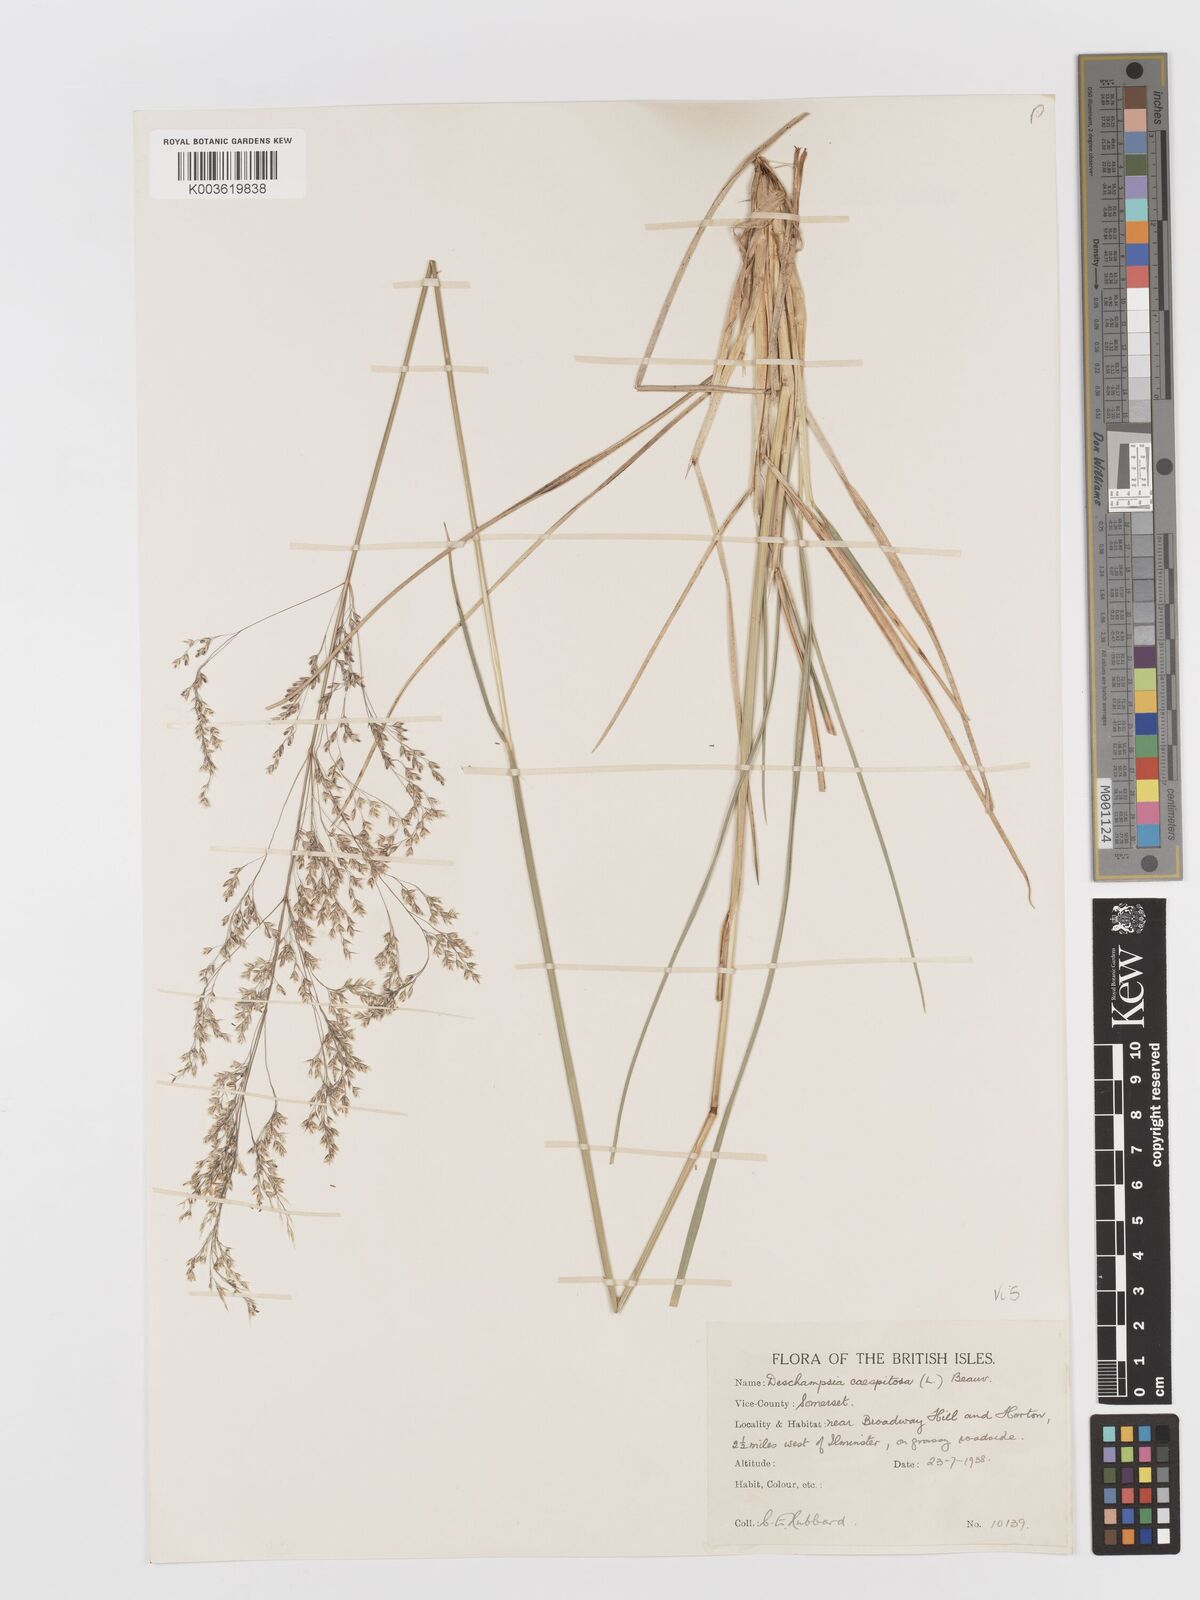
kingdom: Plantae
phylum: Tracheophyta
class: Liliopsida
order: Poales
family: Poaceae
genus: Deschampsia
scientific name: Deschampsia cespitosa
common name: Tufted hair-grass
